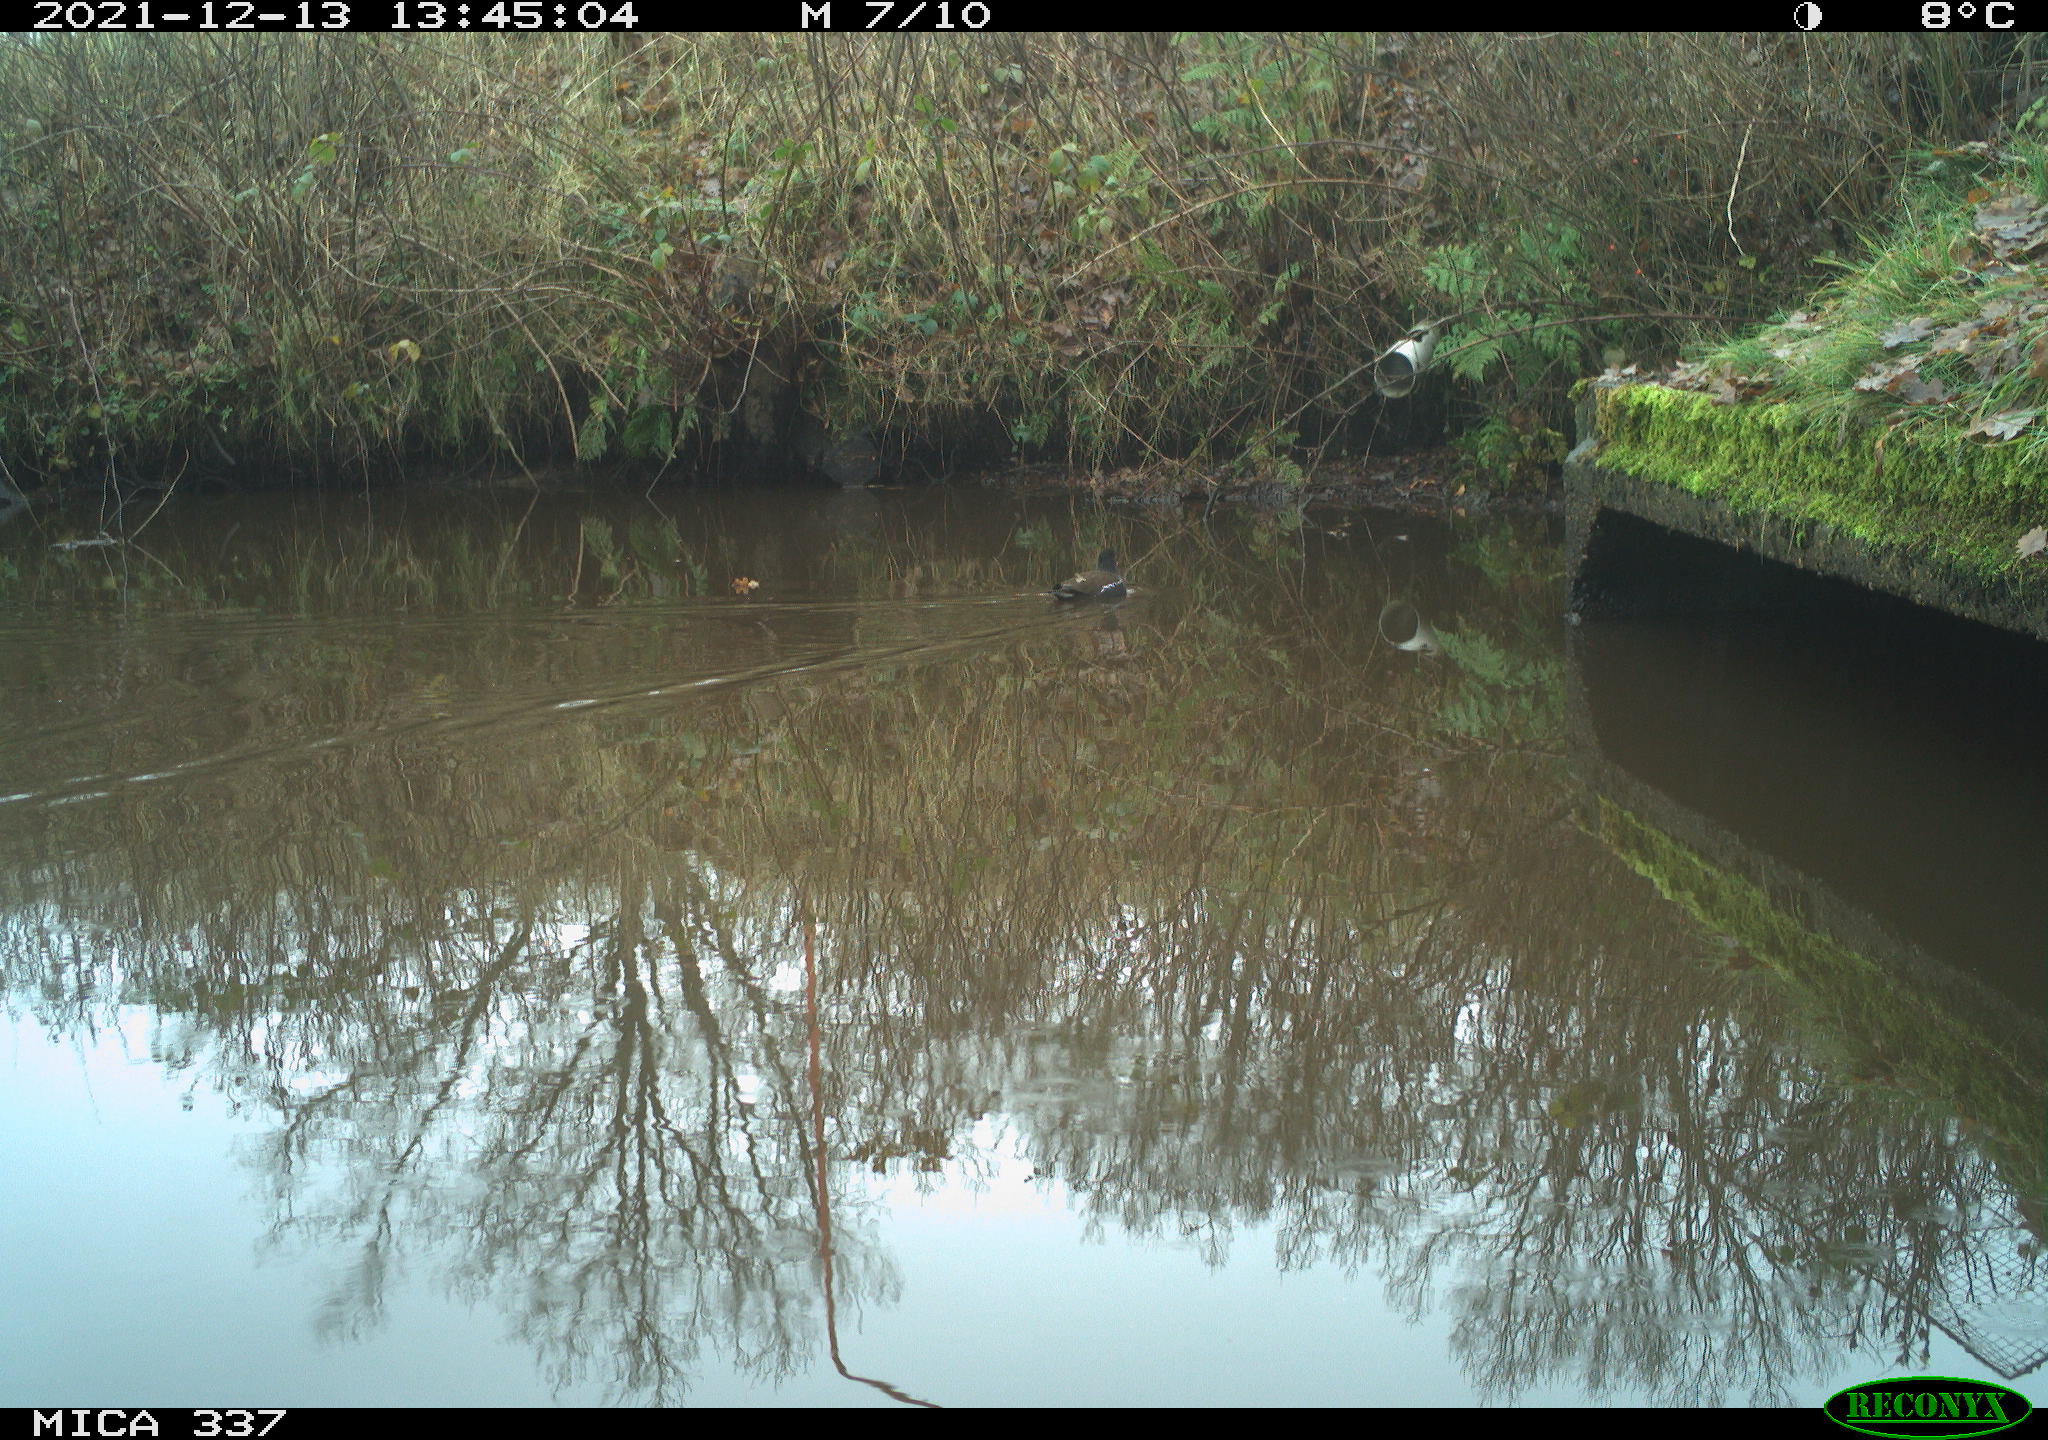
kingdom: Animalia
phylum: Chordata
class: Aves
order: Gruiformes
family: Rallidae
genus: Gallinula
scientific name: Gallinula chloropus
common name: Common moorhen
